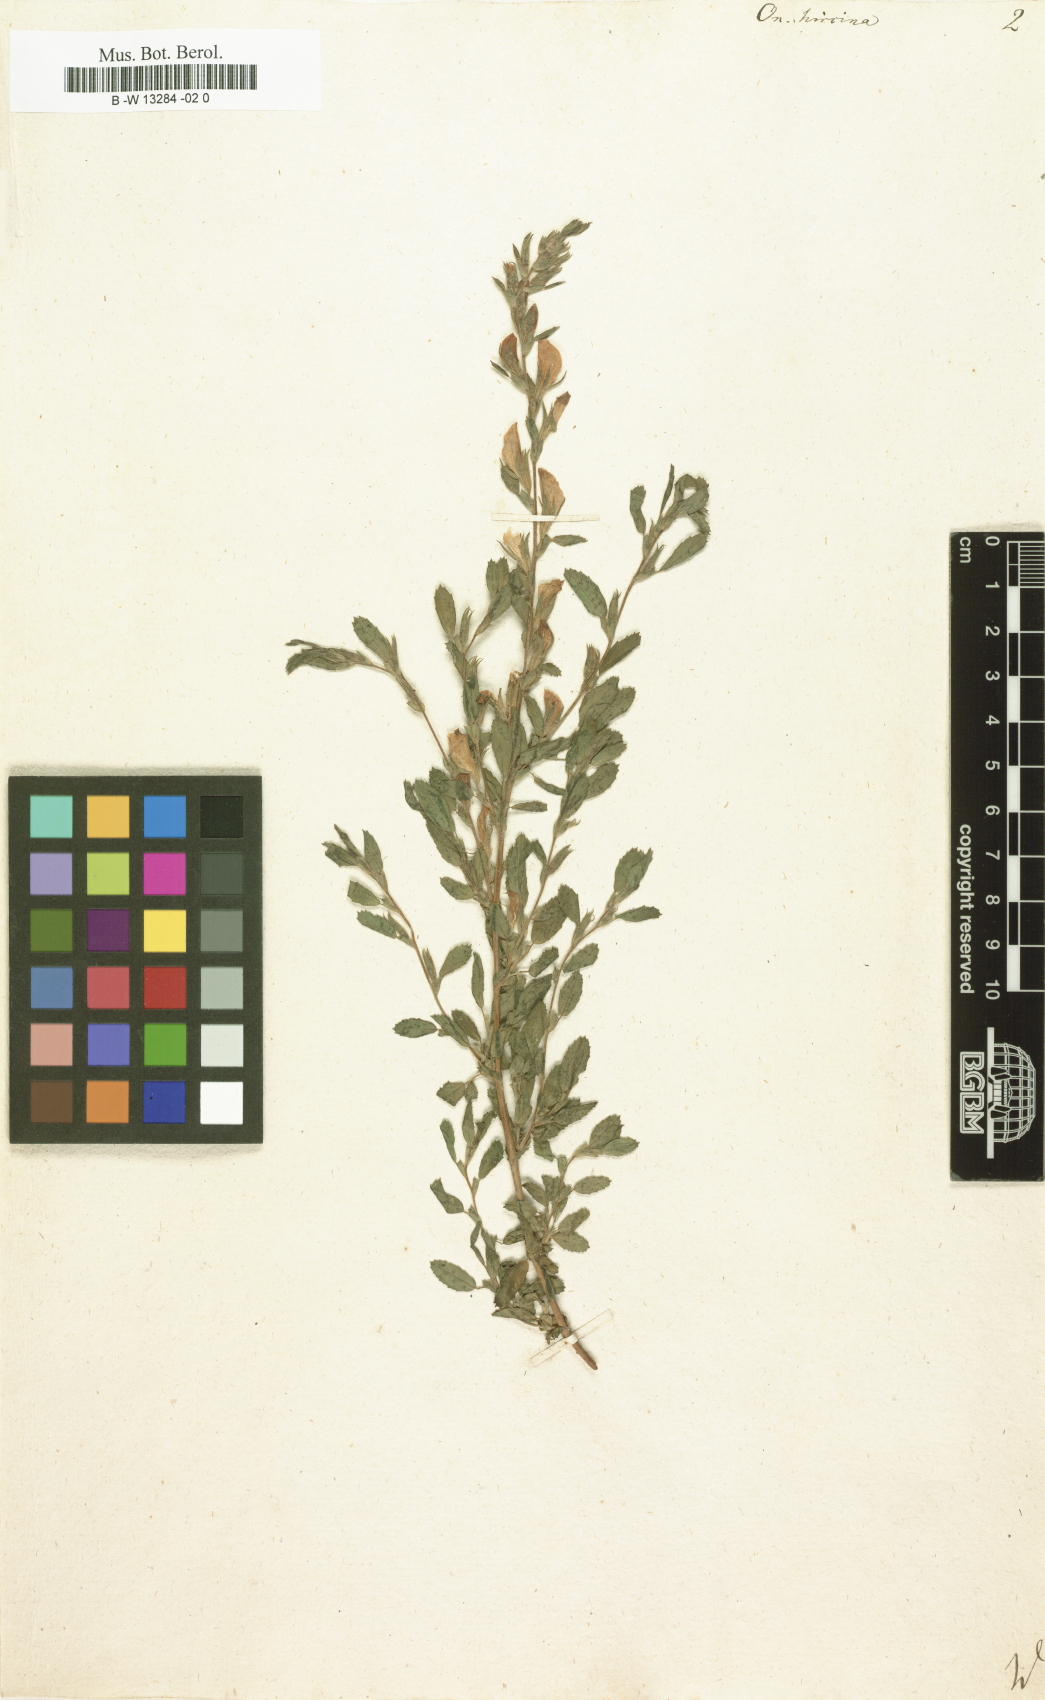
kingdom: Plantae
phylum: Tracheophyta
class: Magnoliopsida
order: Fabales
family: Fabaceae
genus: Ononis
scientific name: Ononis arvensis
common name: Field restharrow
